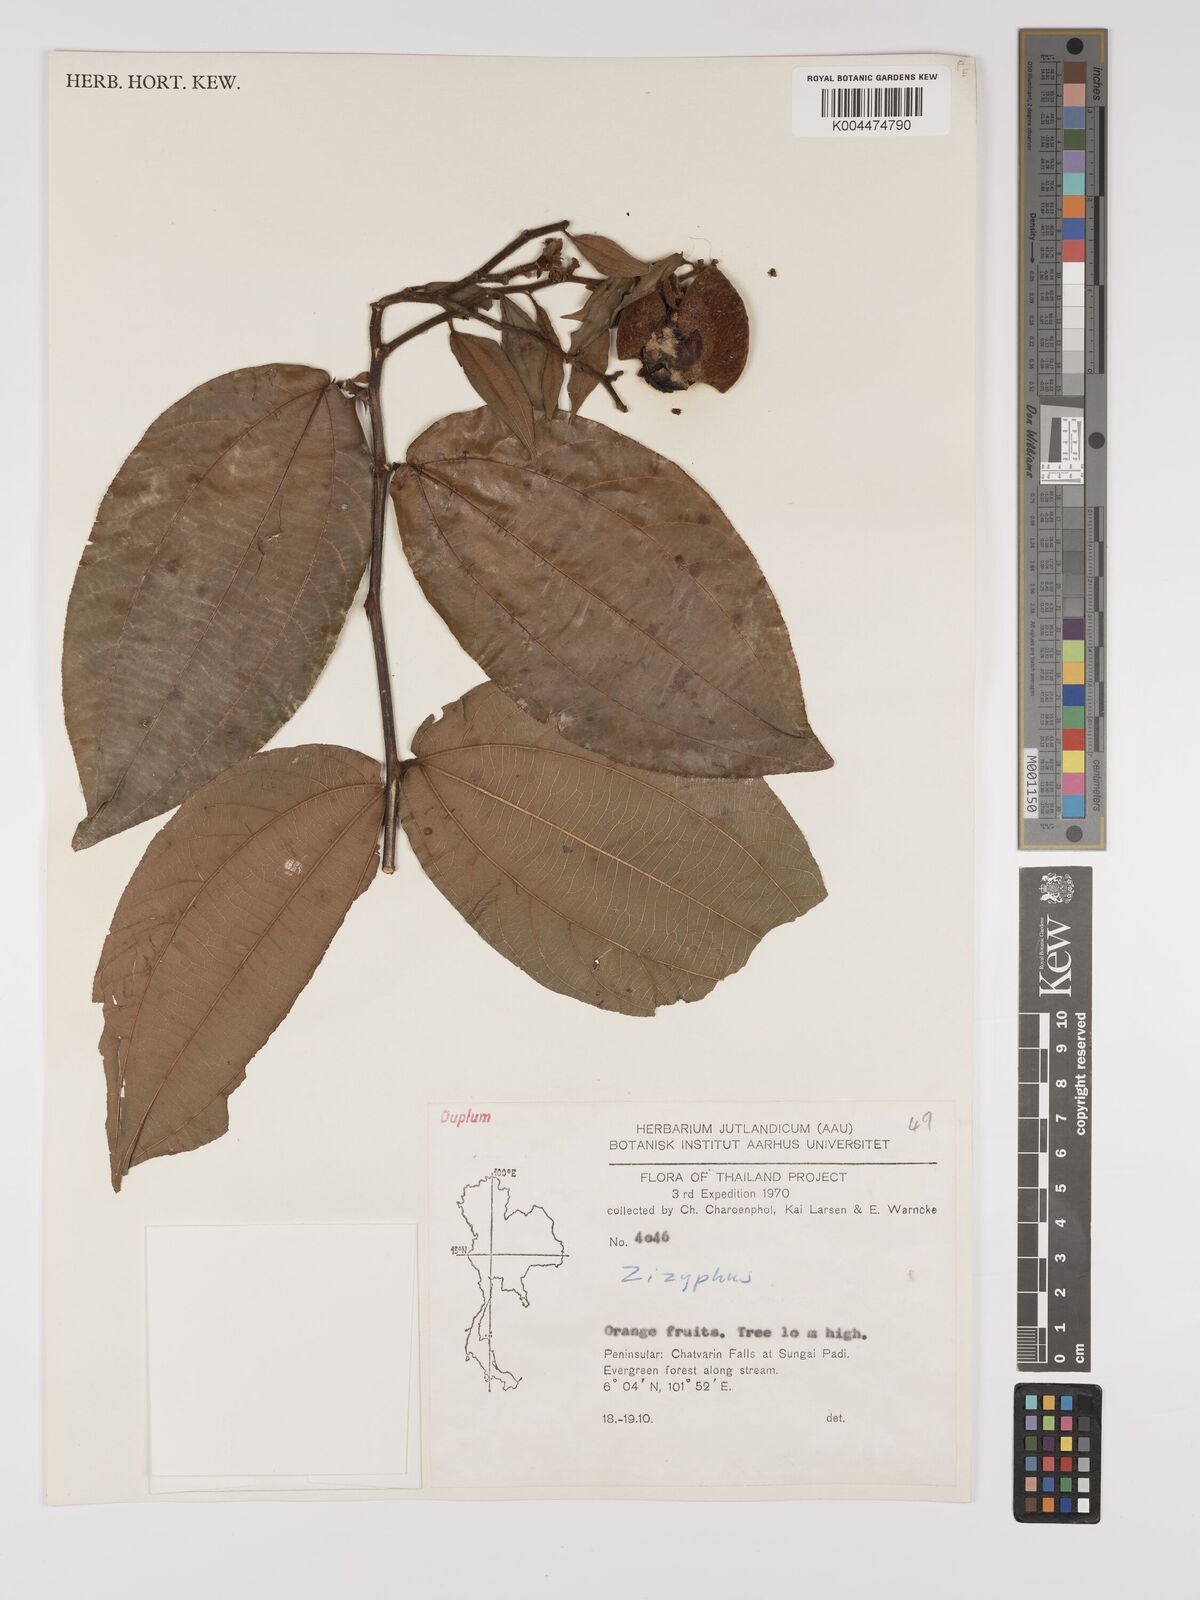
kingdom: Plantae
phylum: Tracheophyta
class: Magnoliopsida
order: Rosales
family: Rhamnaceae
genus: Ziziphus
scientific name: Ziziphus kunstleri
